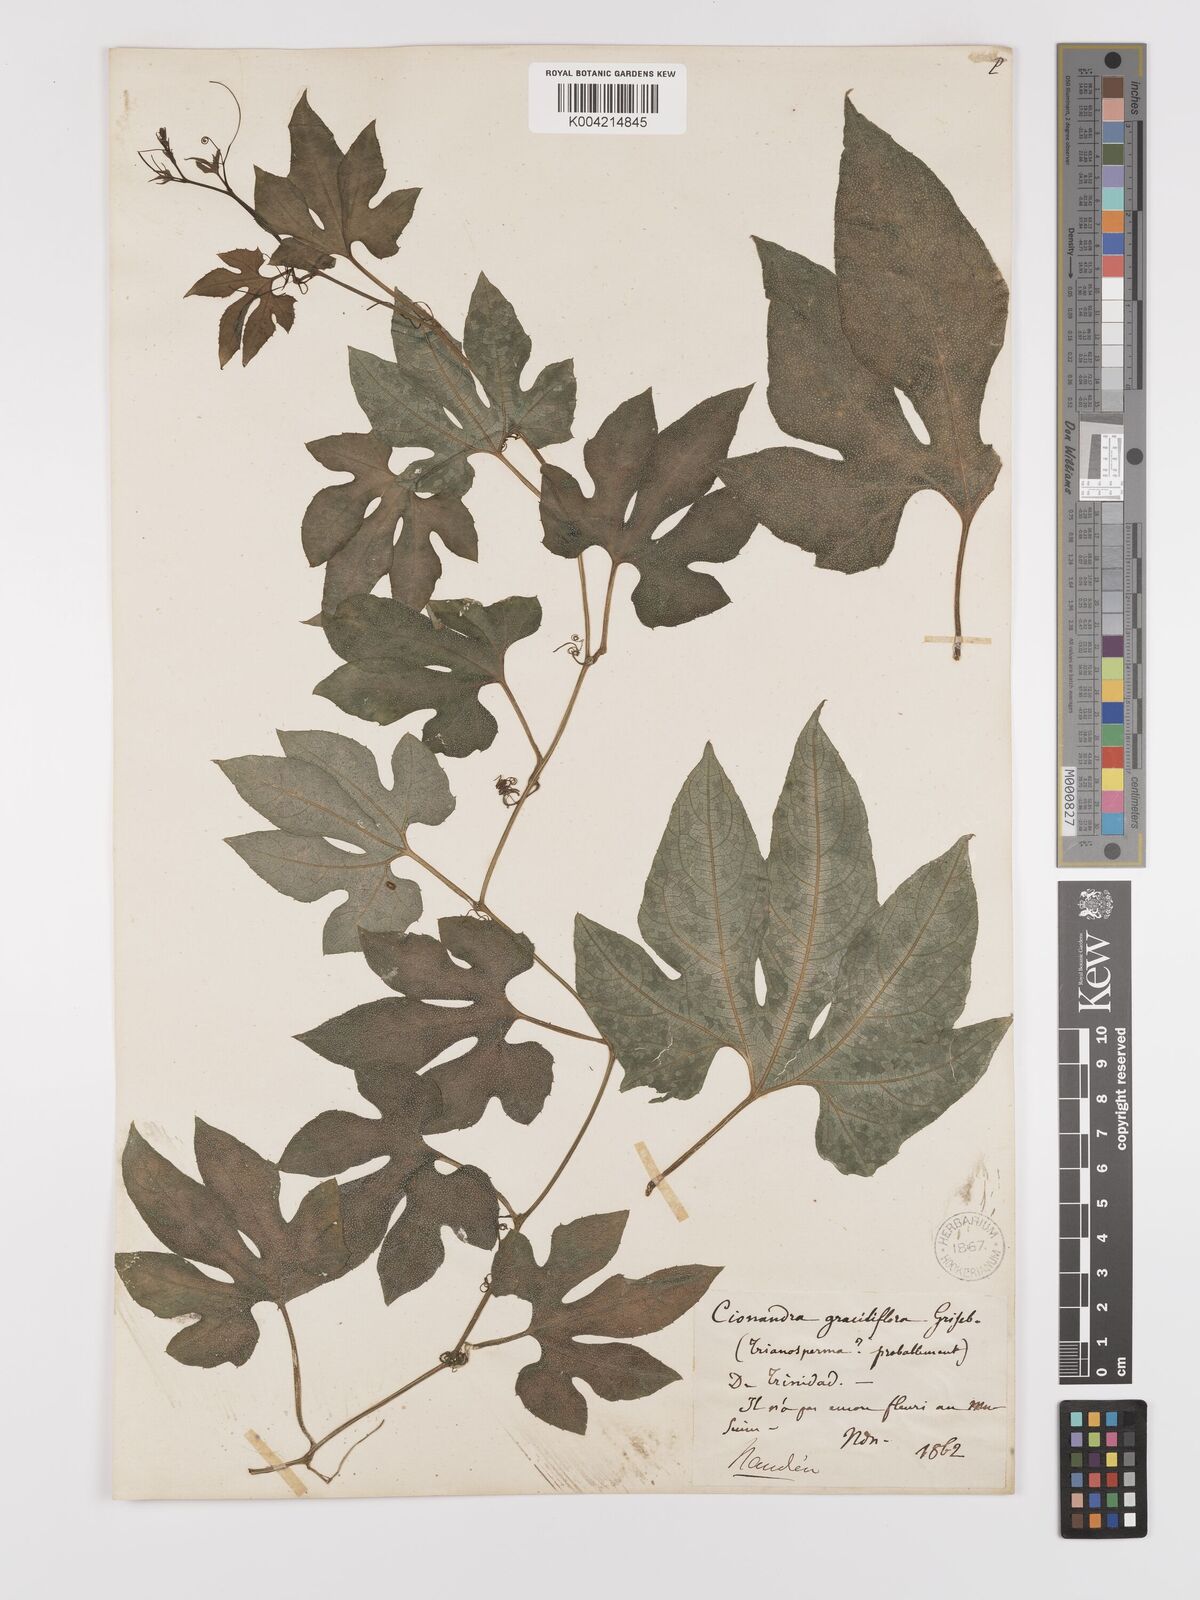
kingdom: Plantae
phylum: Tracheophyta
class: Magnoliopsida
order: Cucurbitales
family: Cucurbitaceae
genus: Cayaponia
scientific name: Cayaponia americana
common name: American melonleaf
